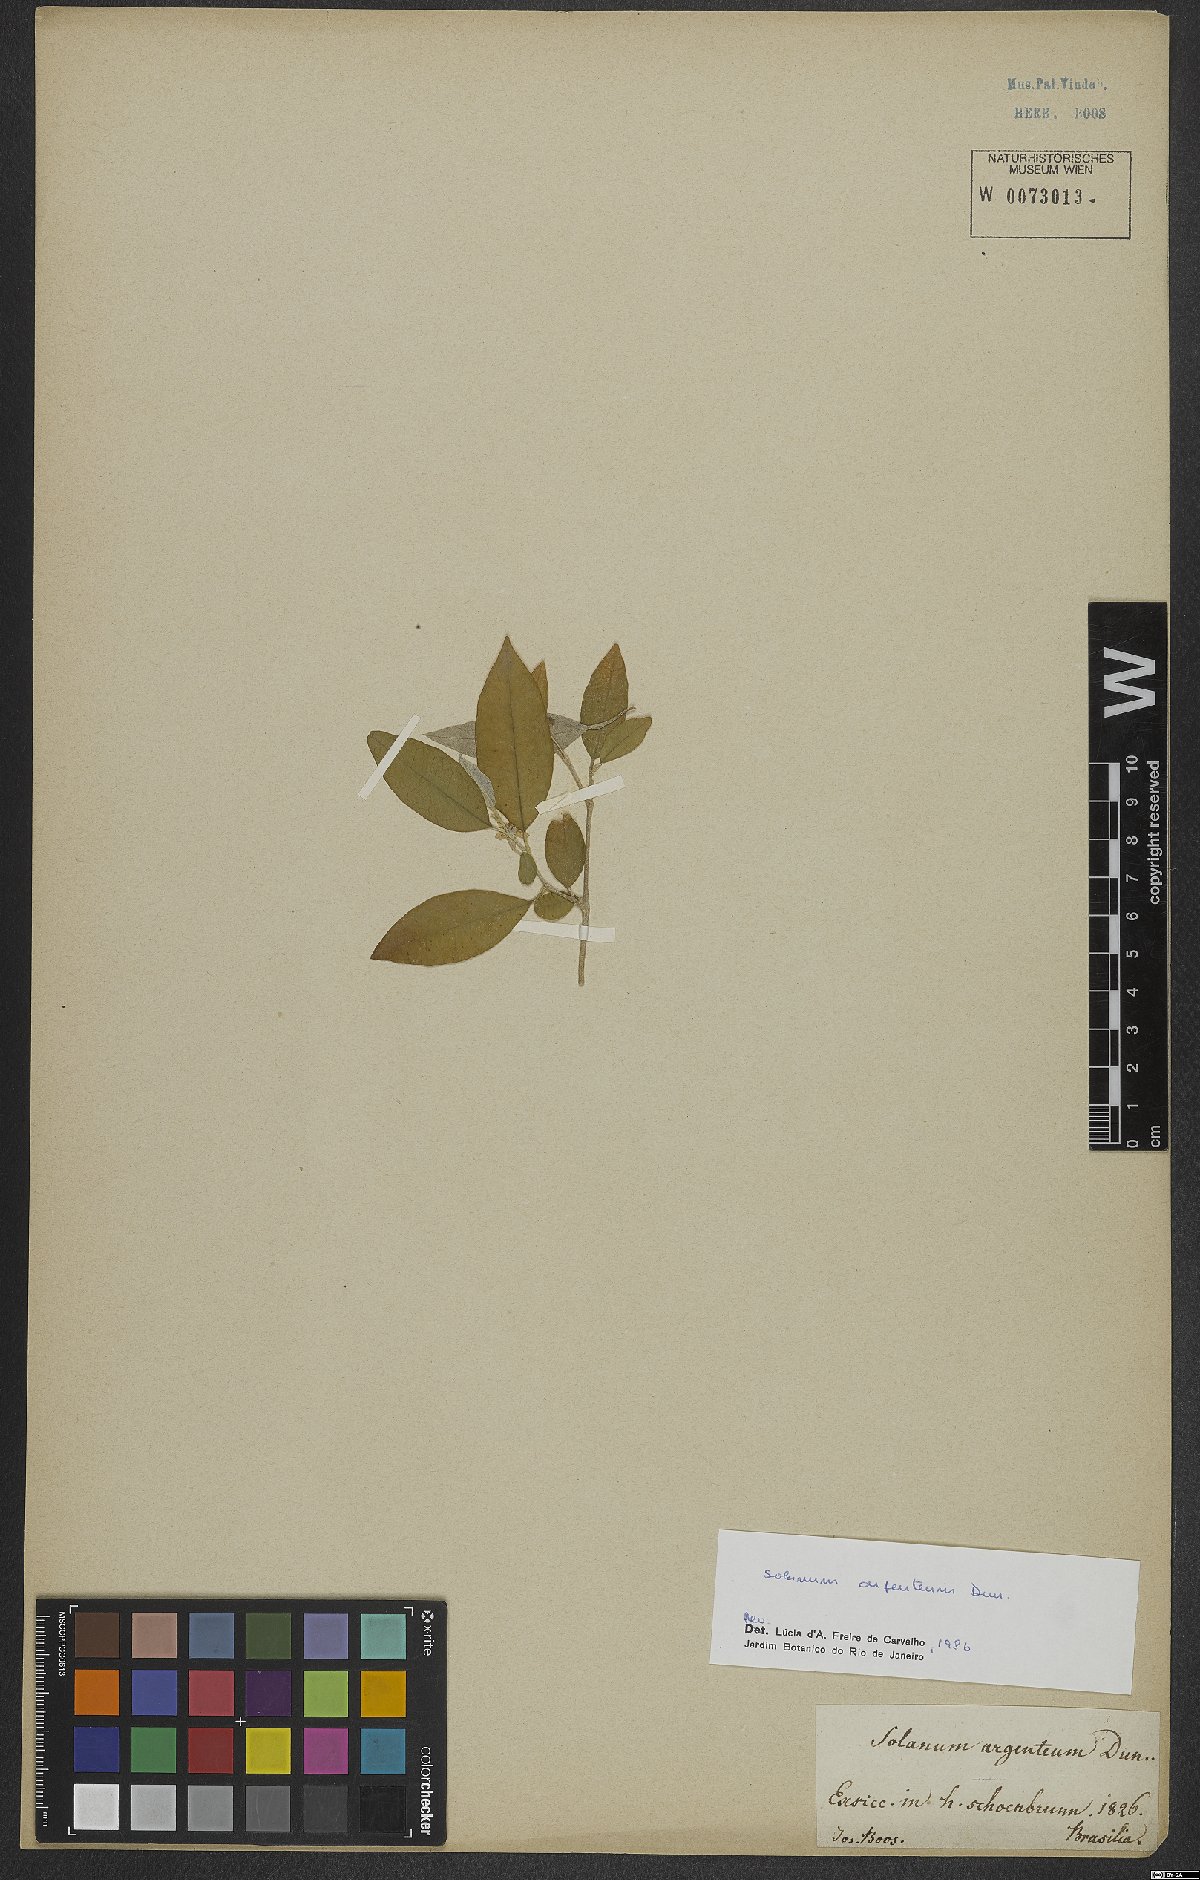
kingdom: Plantae
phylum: Tracheophyta
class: Magnoliopsida
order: Solanales
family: Solanaceae
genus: Solanum
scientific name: Solanum swartzianum
